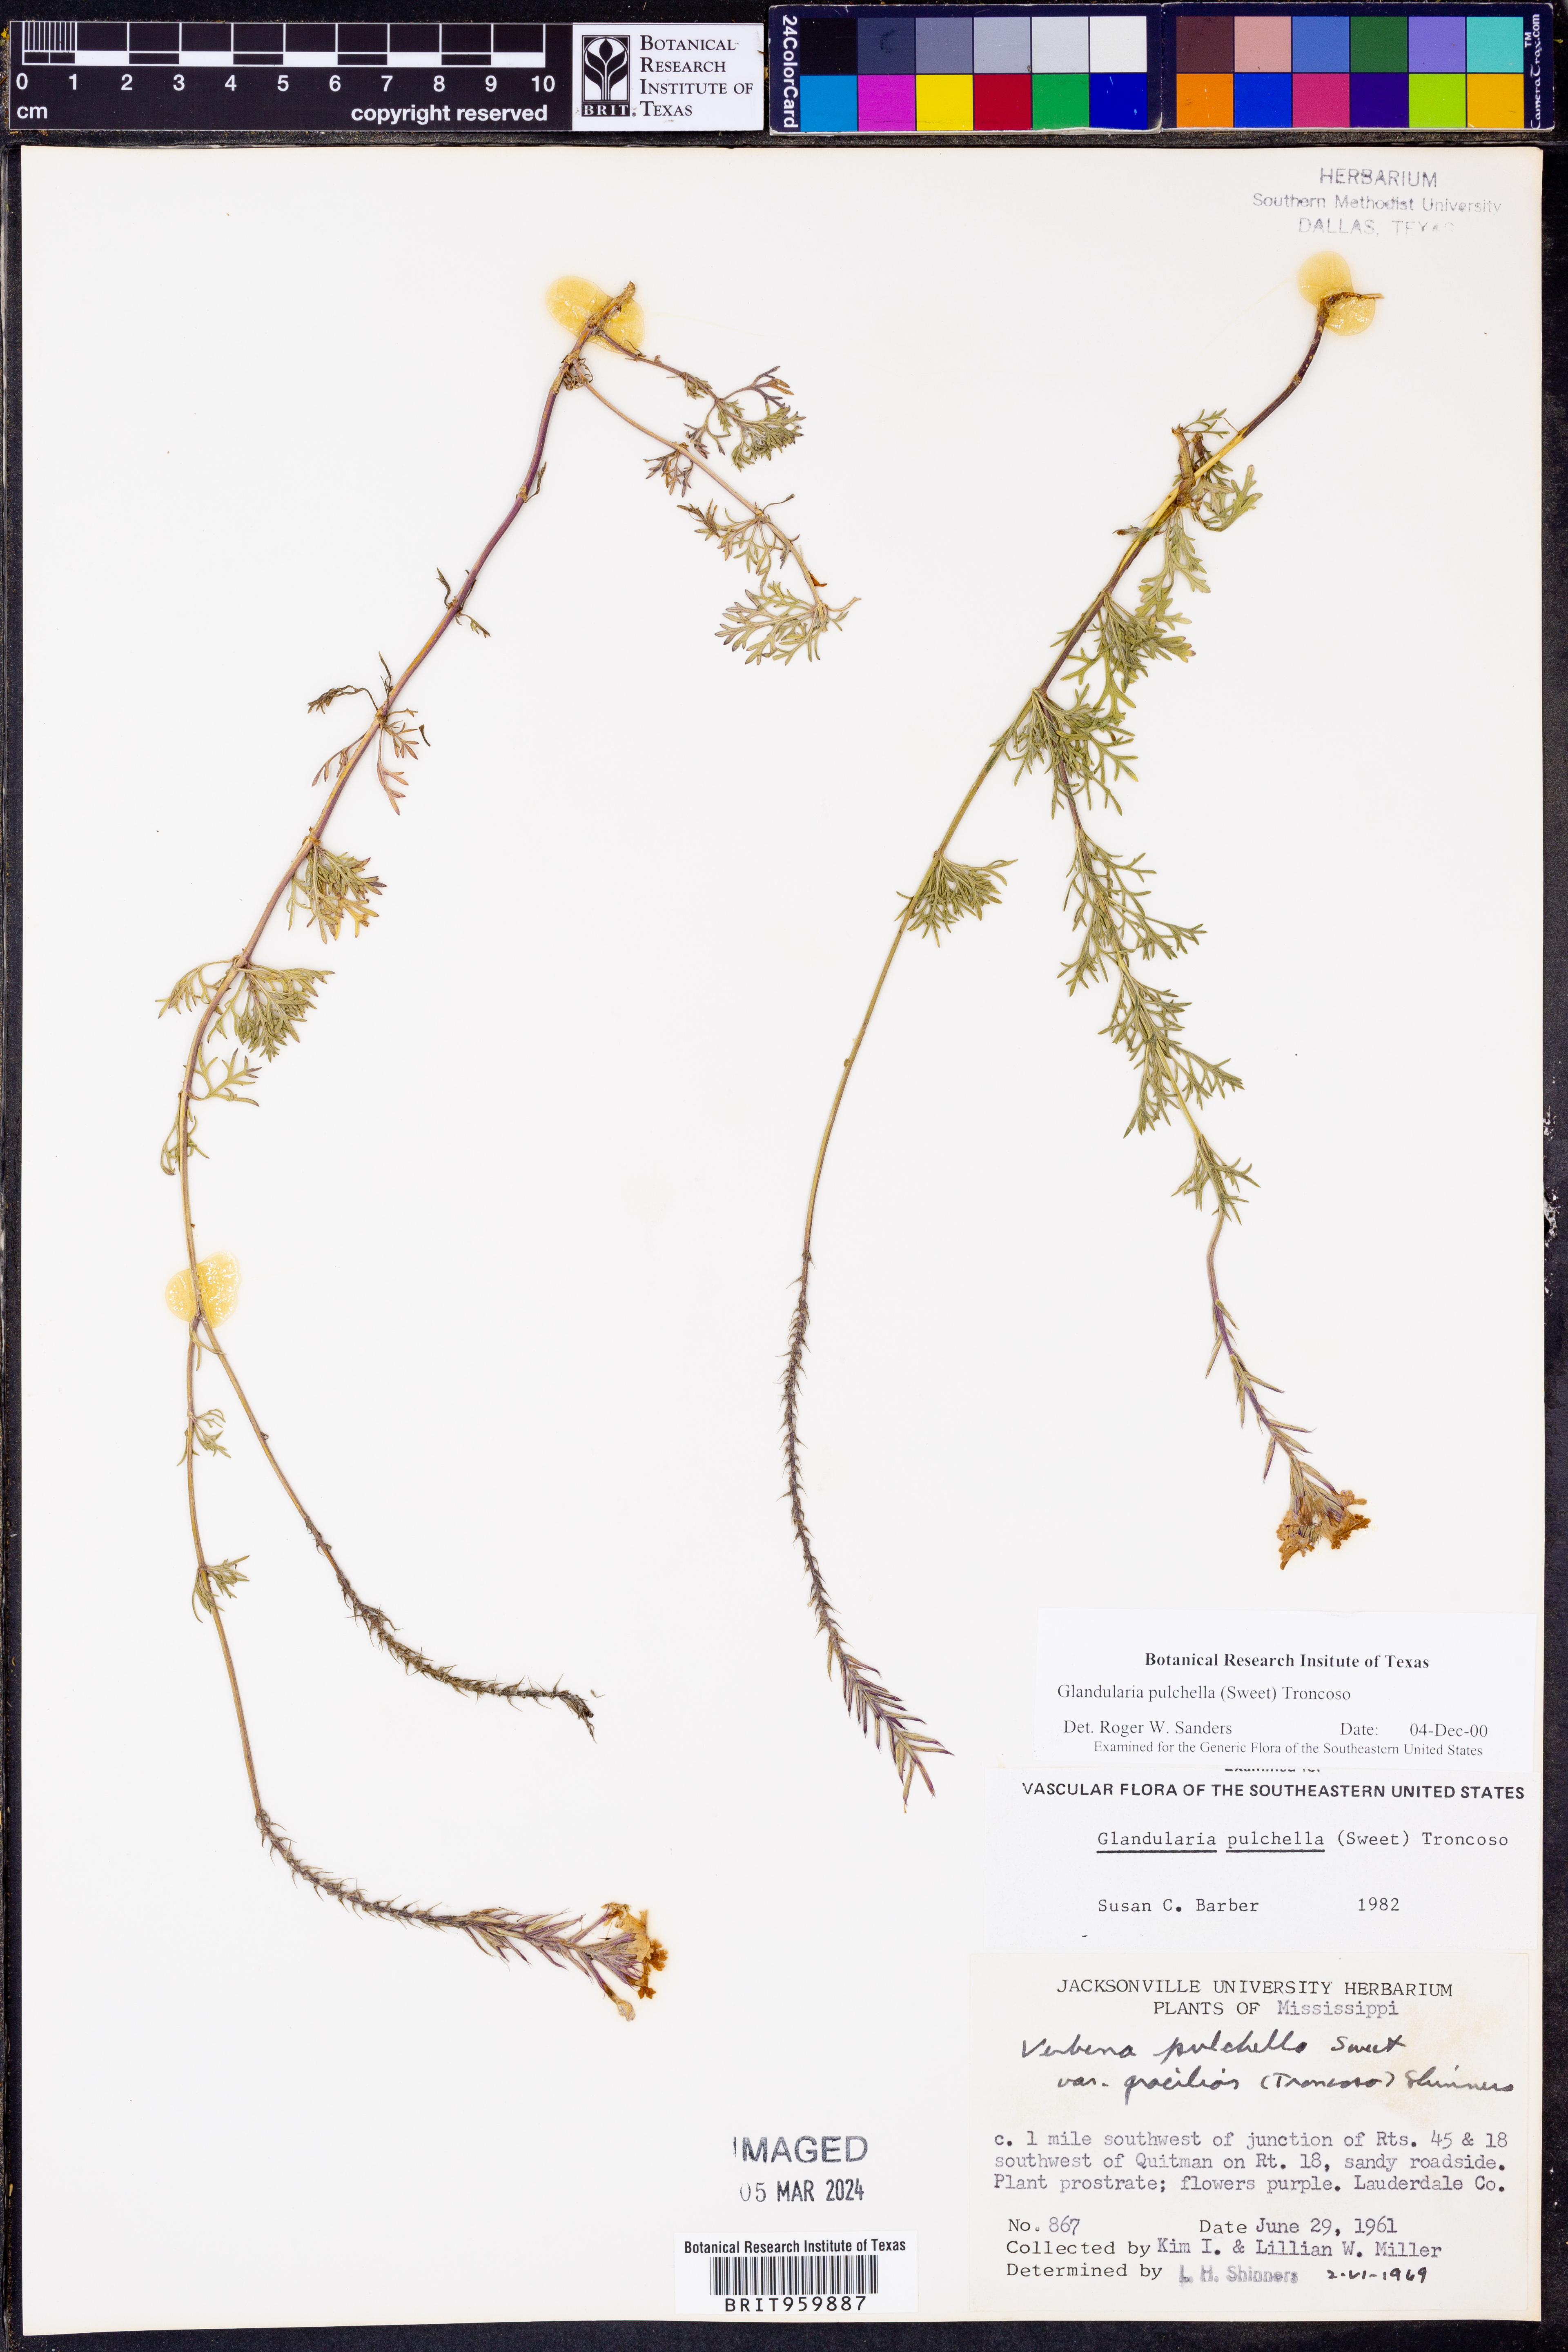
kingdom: Plantae
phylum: Tracheophyta
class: Magnoliopsida
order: Lamiales
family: Verbenaceae
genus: Verbena
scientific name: Verbena tenera
